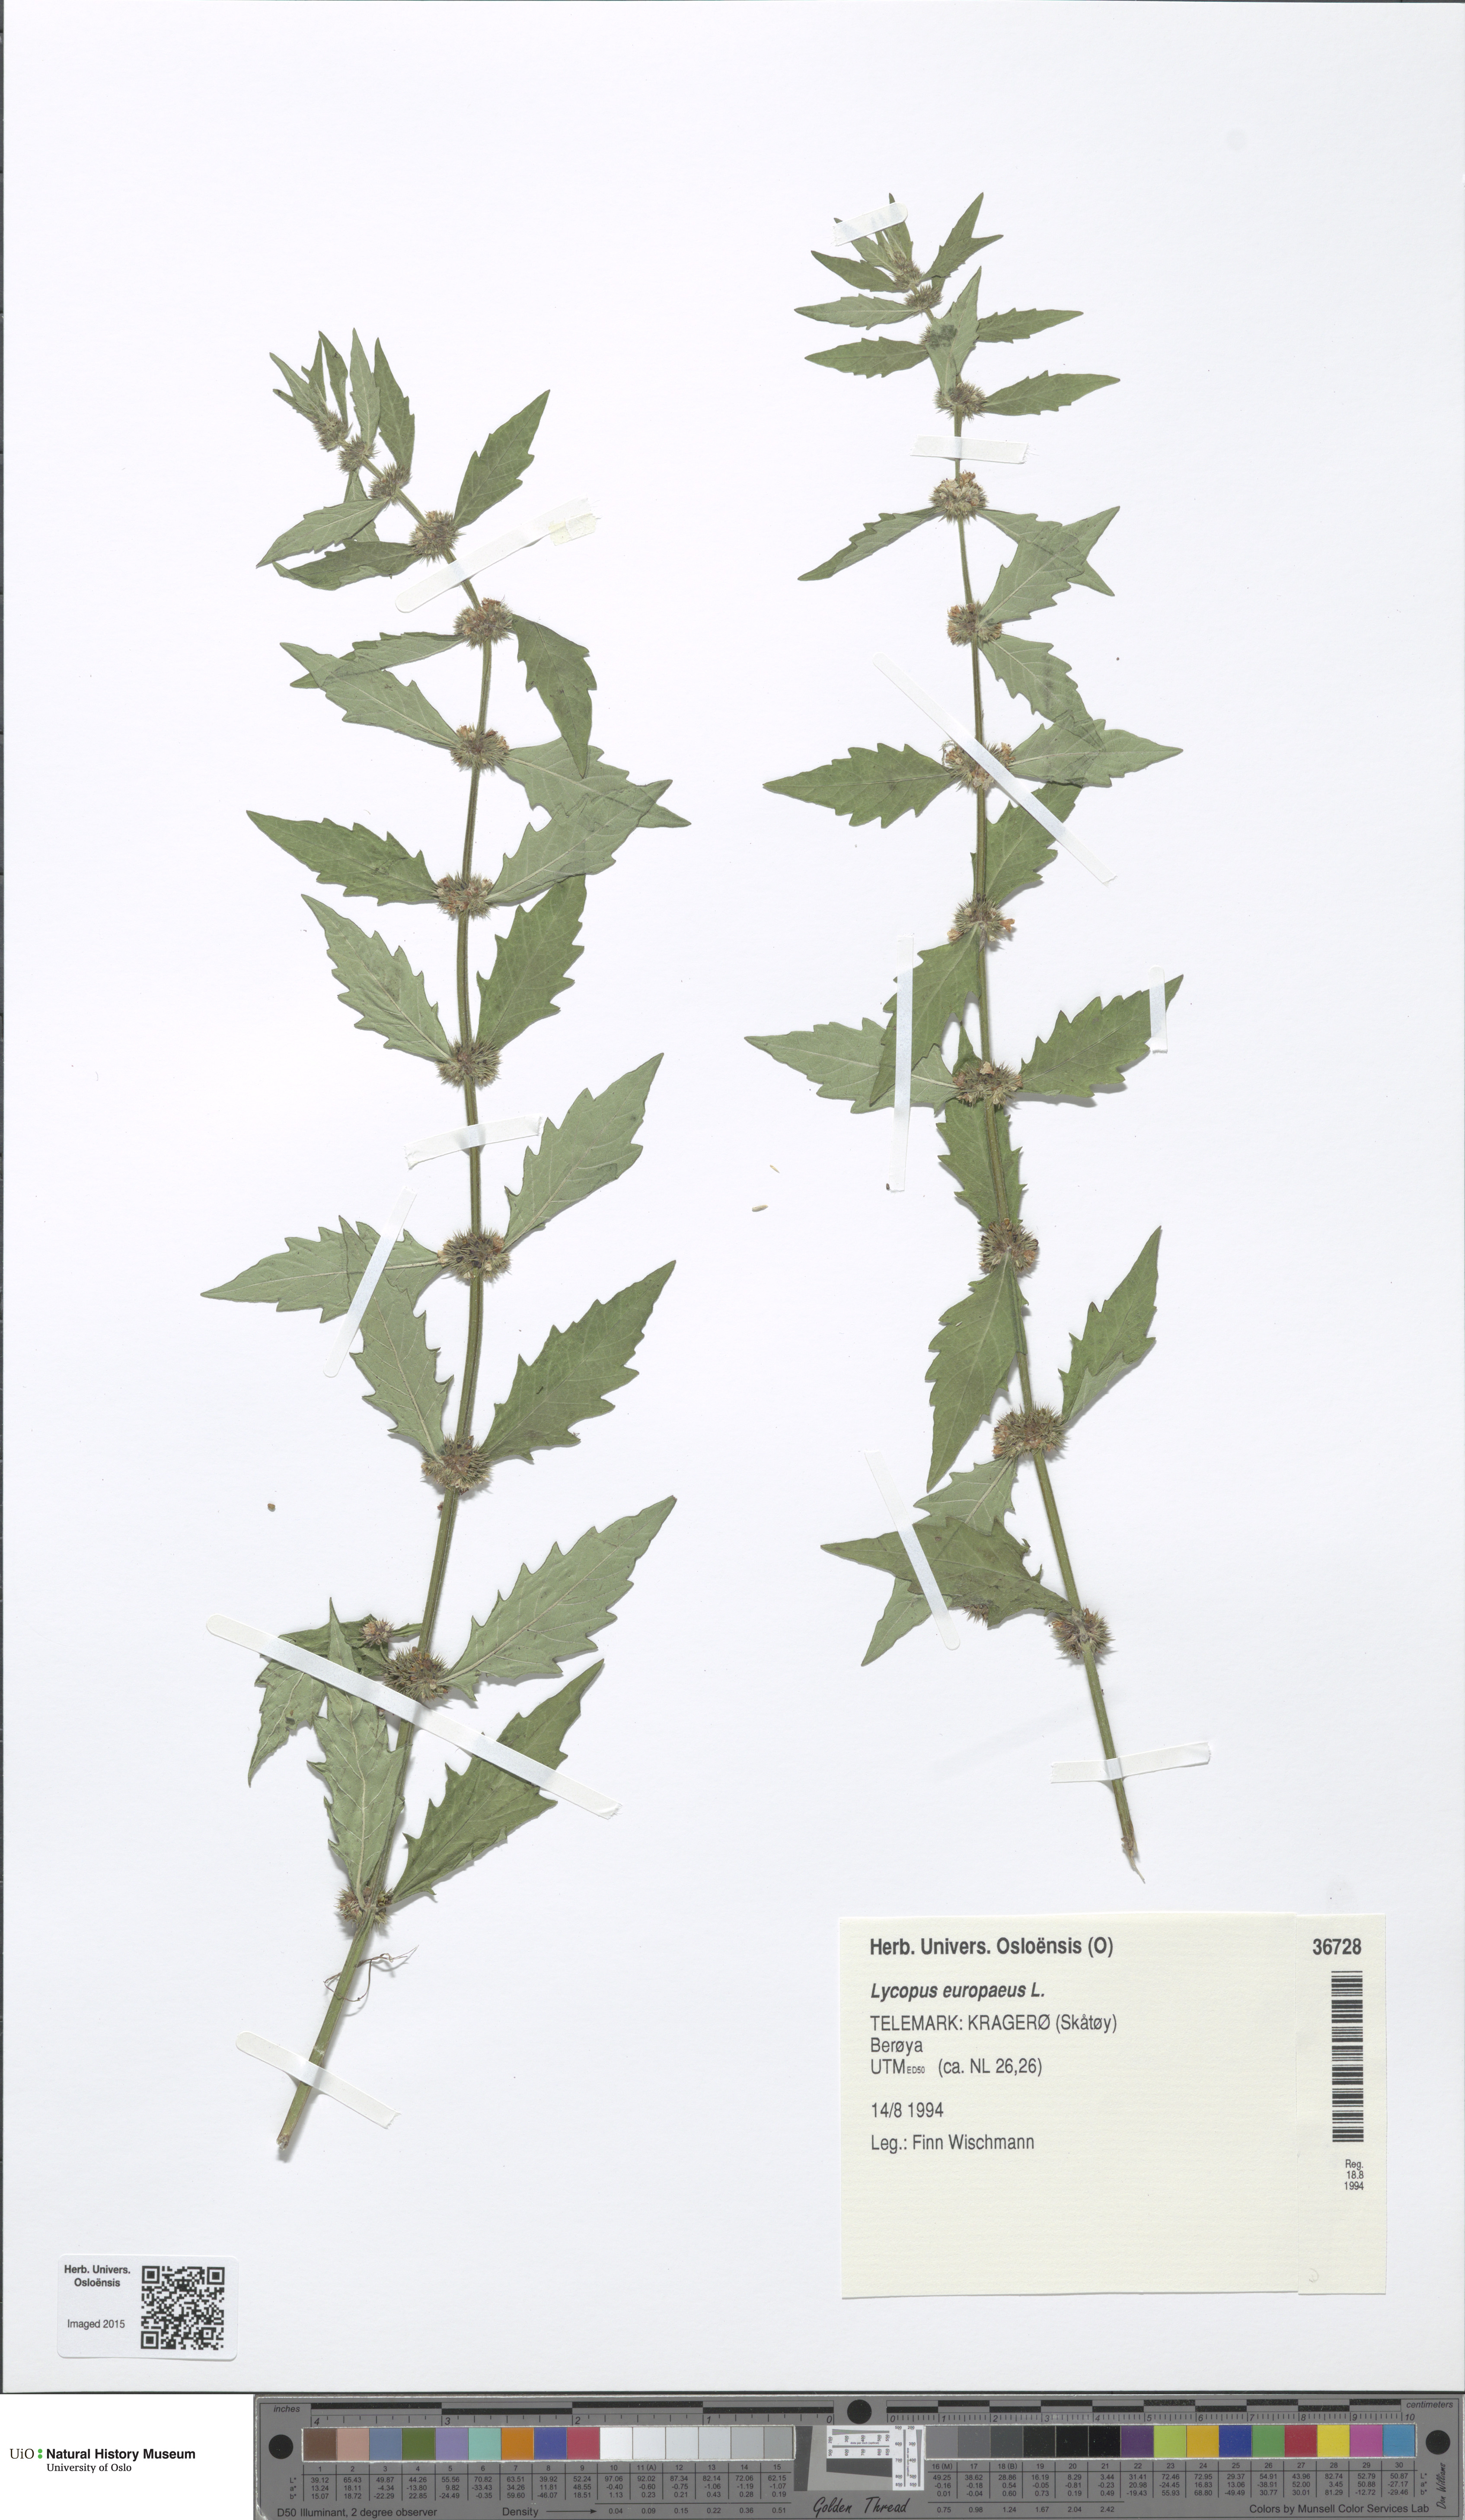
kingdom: Plantae
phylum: Tracheophyta
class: Magnoliopsida
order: Lamiales
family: Lamiaceae
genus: Lycopus
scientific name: Lycopus europaeus
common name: European bugleweed
